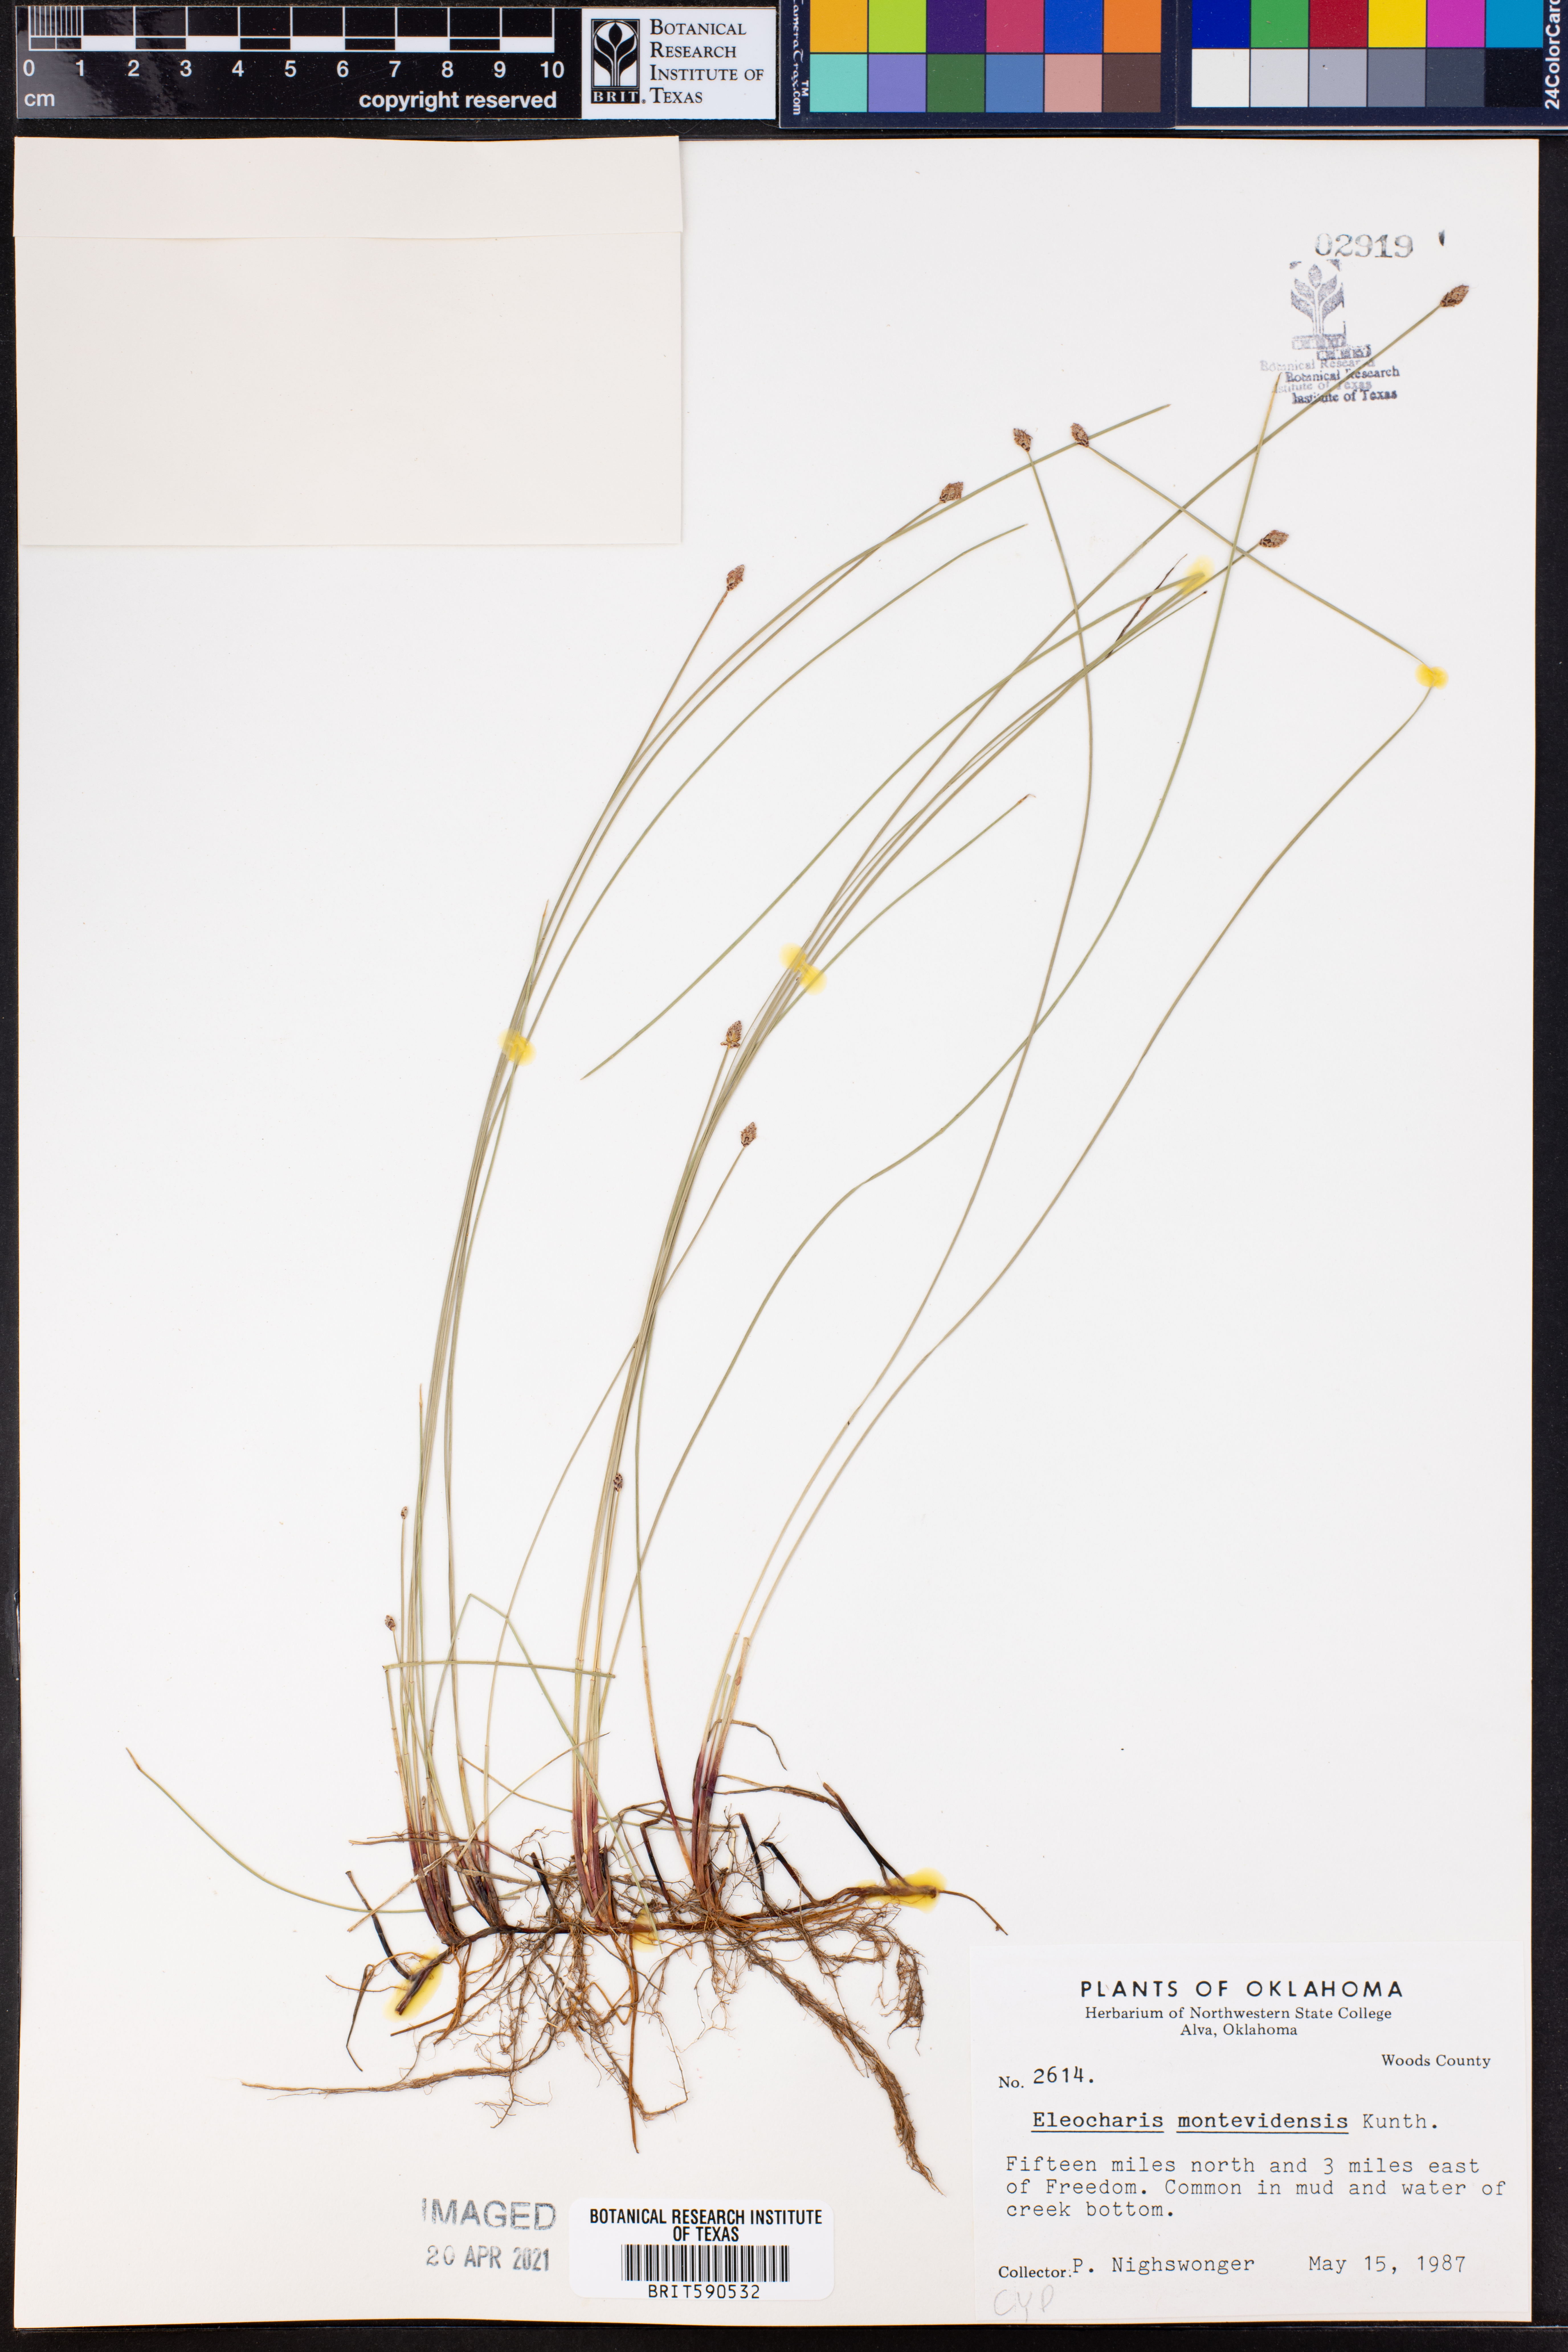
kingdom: Plantae
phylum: Tracheophyta
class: Liliopsida
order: Poales
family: Cyperaceae
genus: Eleocharis
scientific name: Eleocharis montevidensis
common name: Sand spike-rush
